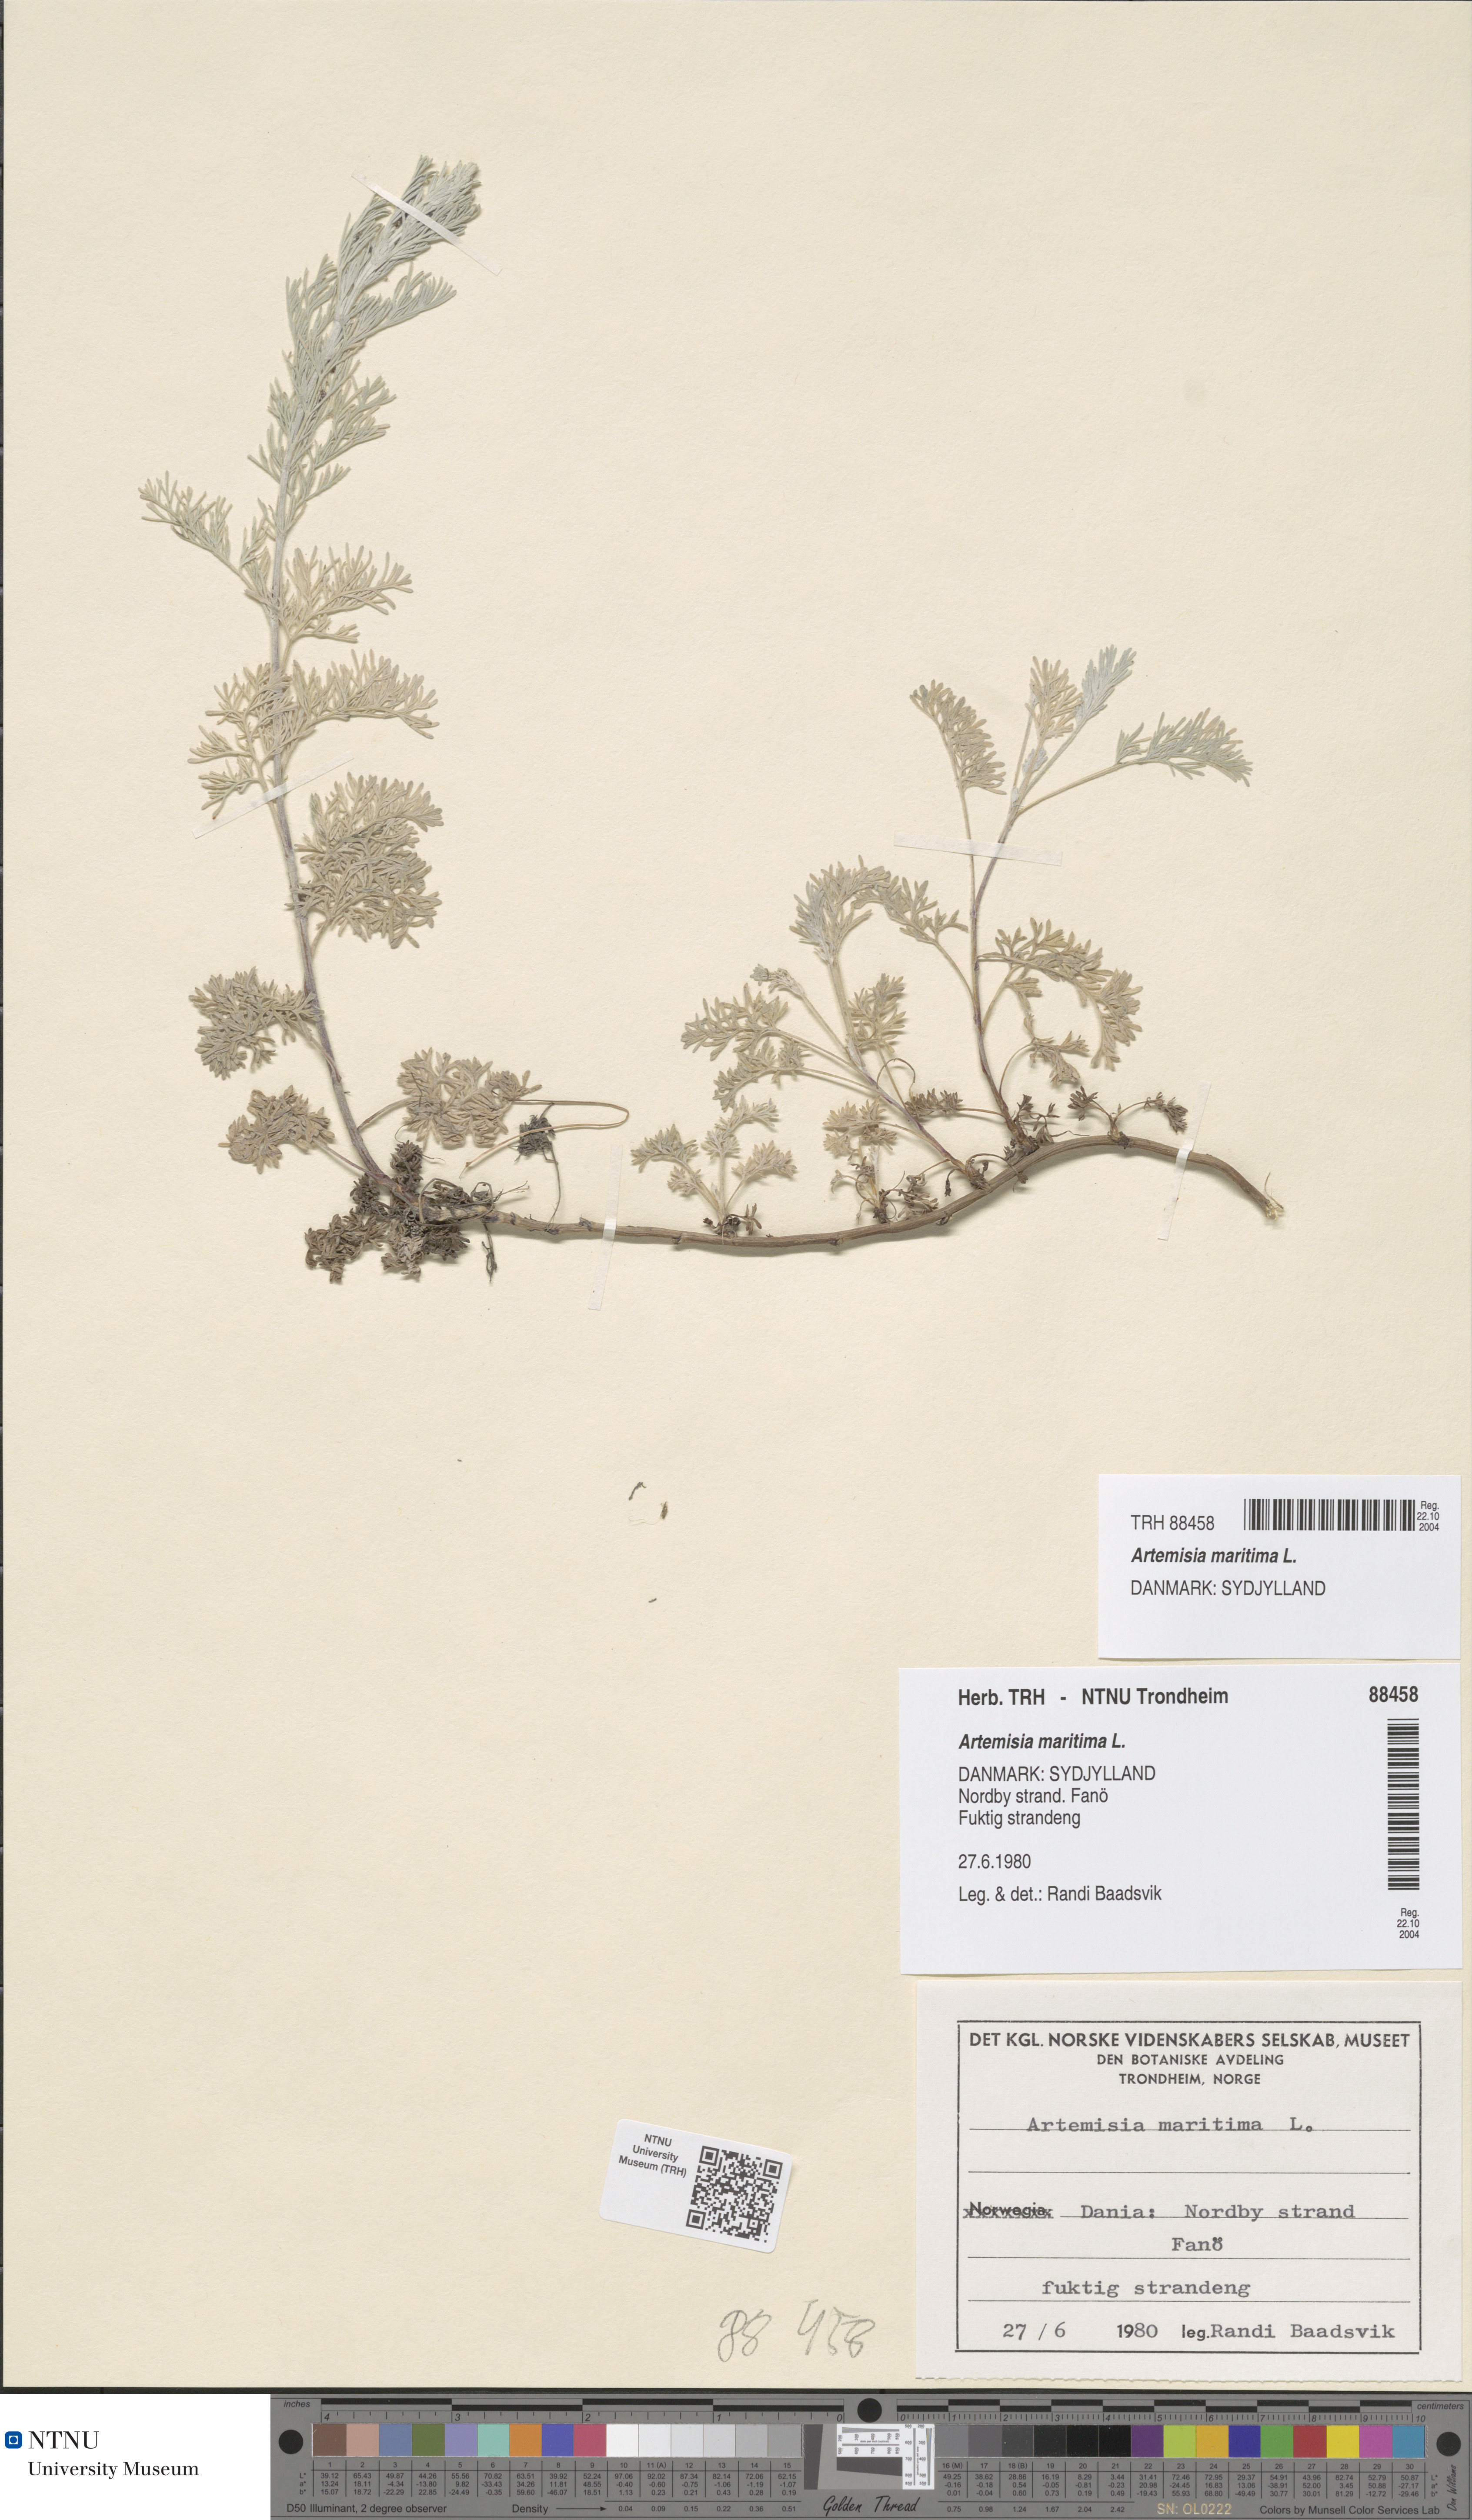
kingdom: Plantae
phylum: Tracheophyta
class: Magnoliopsida
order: Asterales
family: Asteraceae
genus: Artemisia
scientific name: Artemisia maritima
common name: Wormseed
